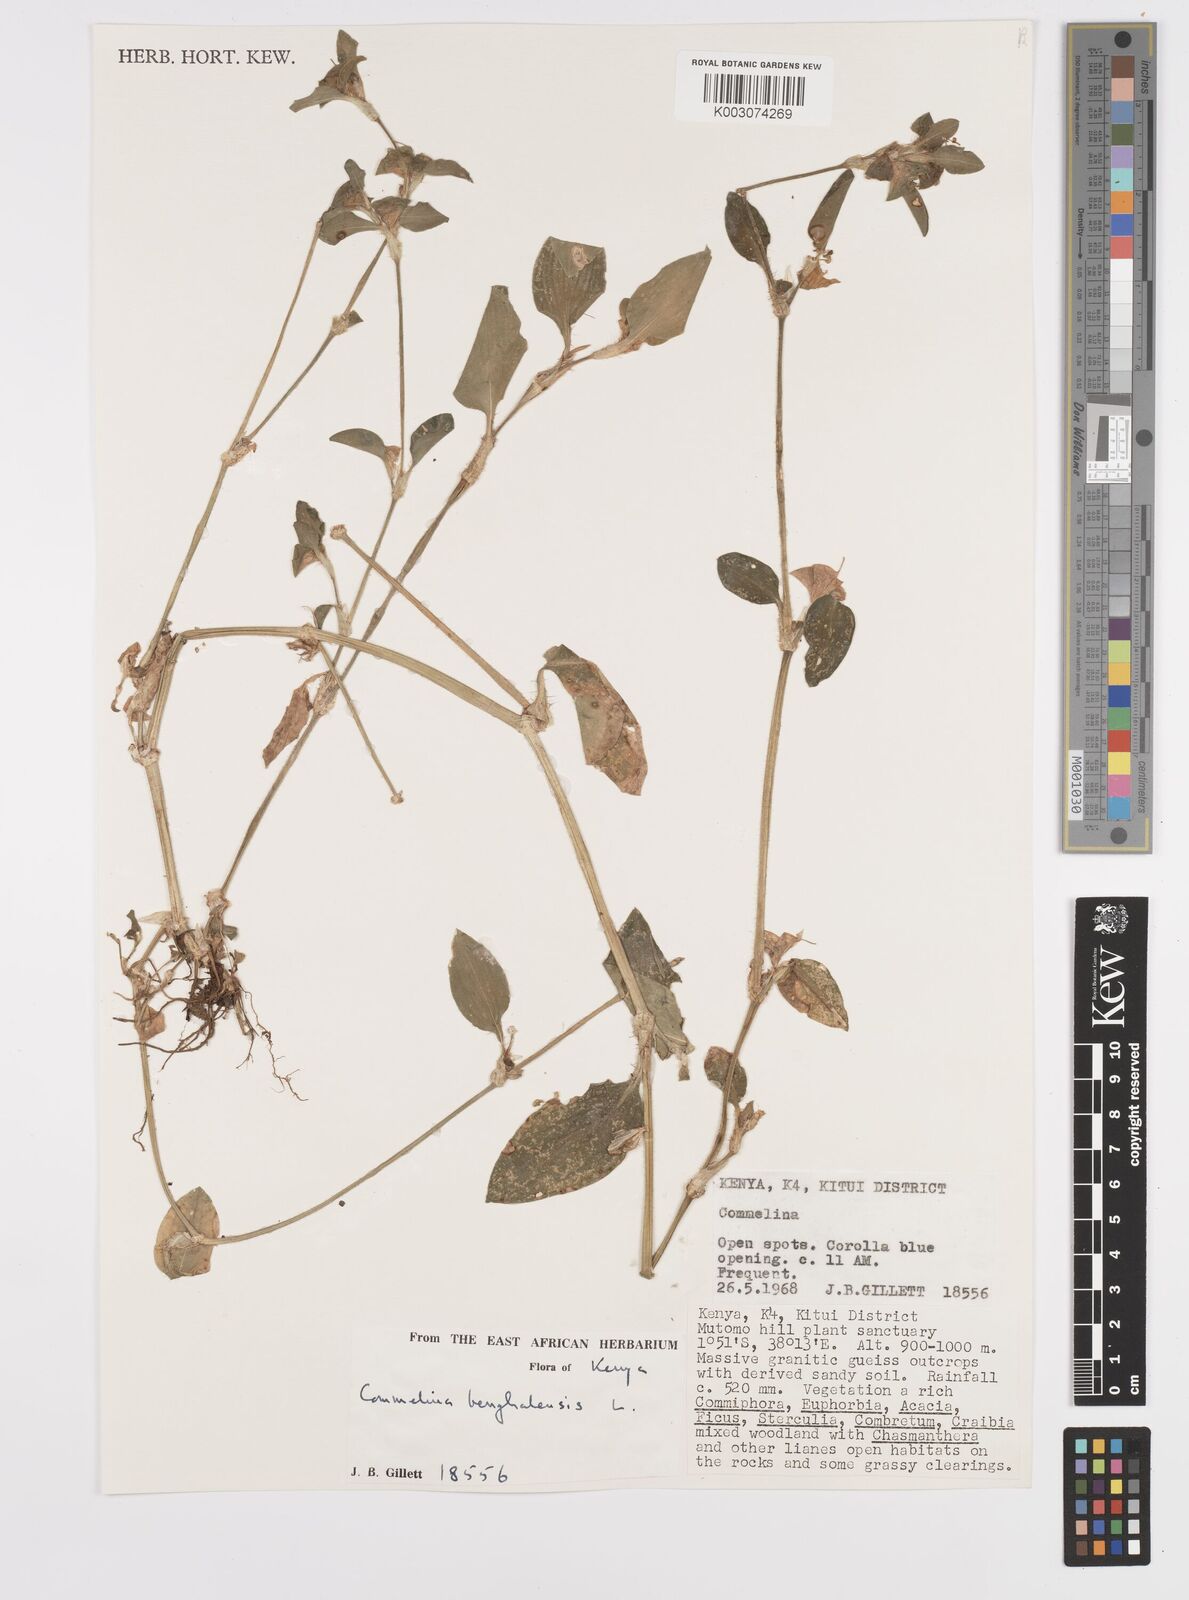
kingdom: Plantae
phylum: Tracheophyta
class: Liliopsida
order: Commelinales
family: Commelinaceae
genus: Commelina
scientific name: Commelina benghalensis
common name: Jio
